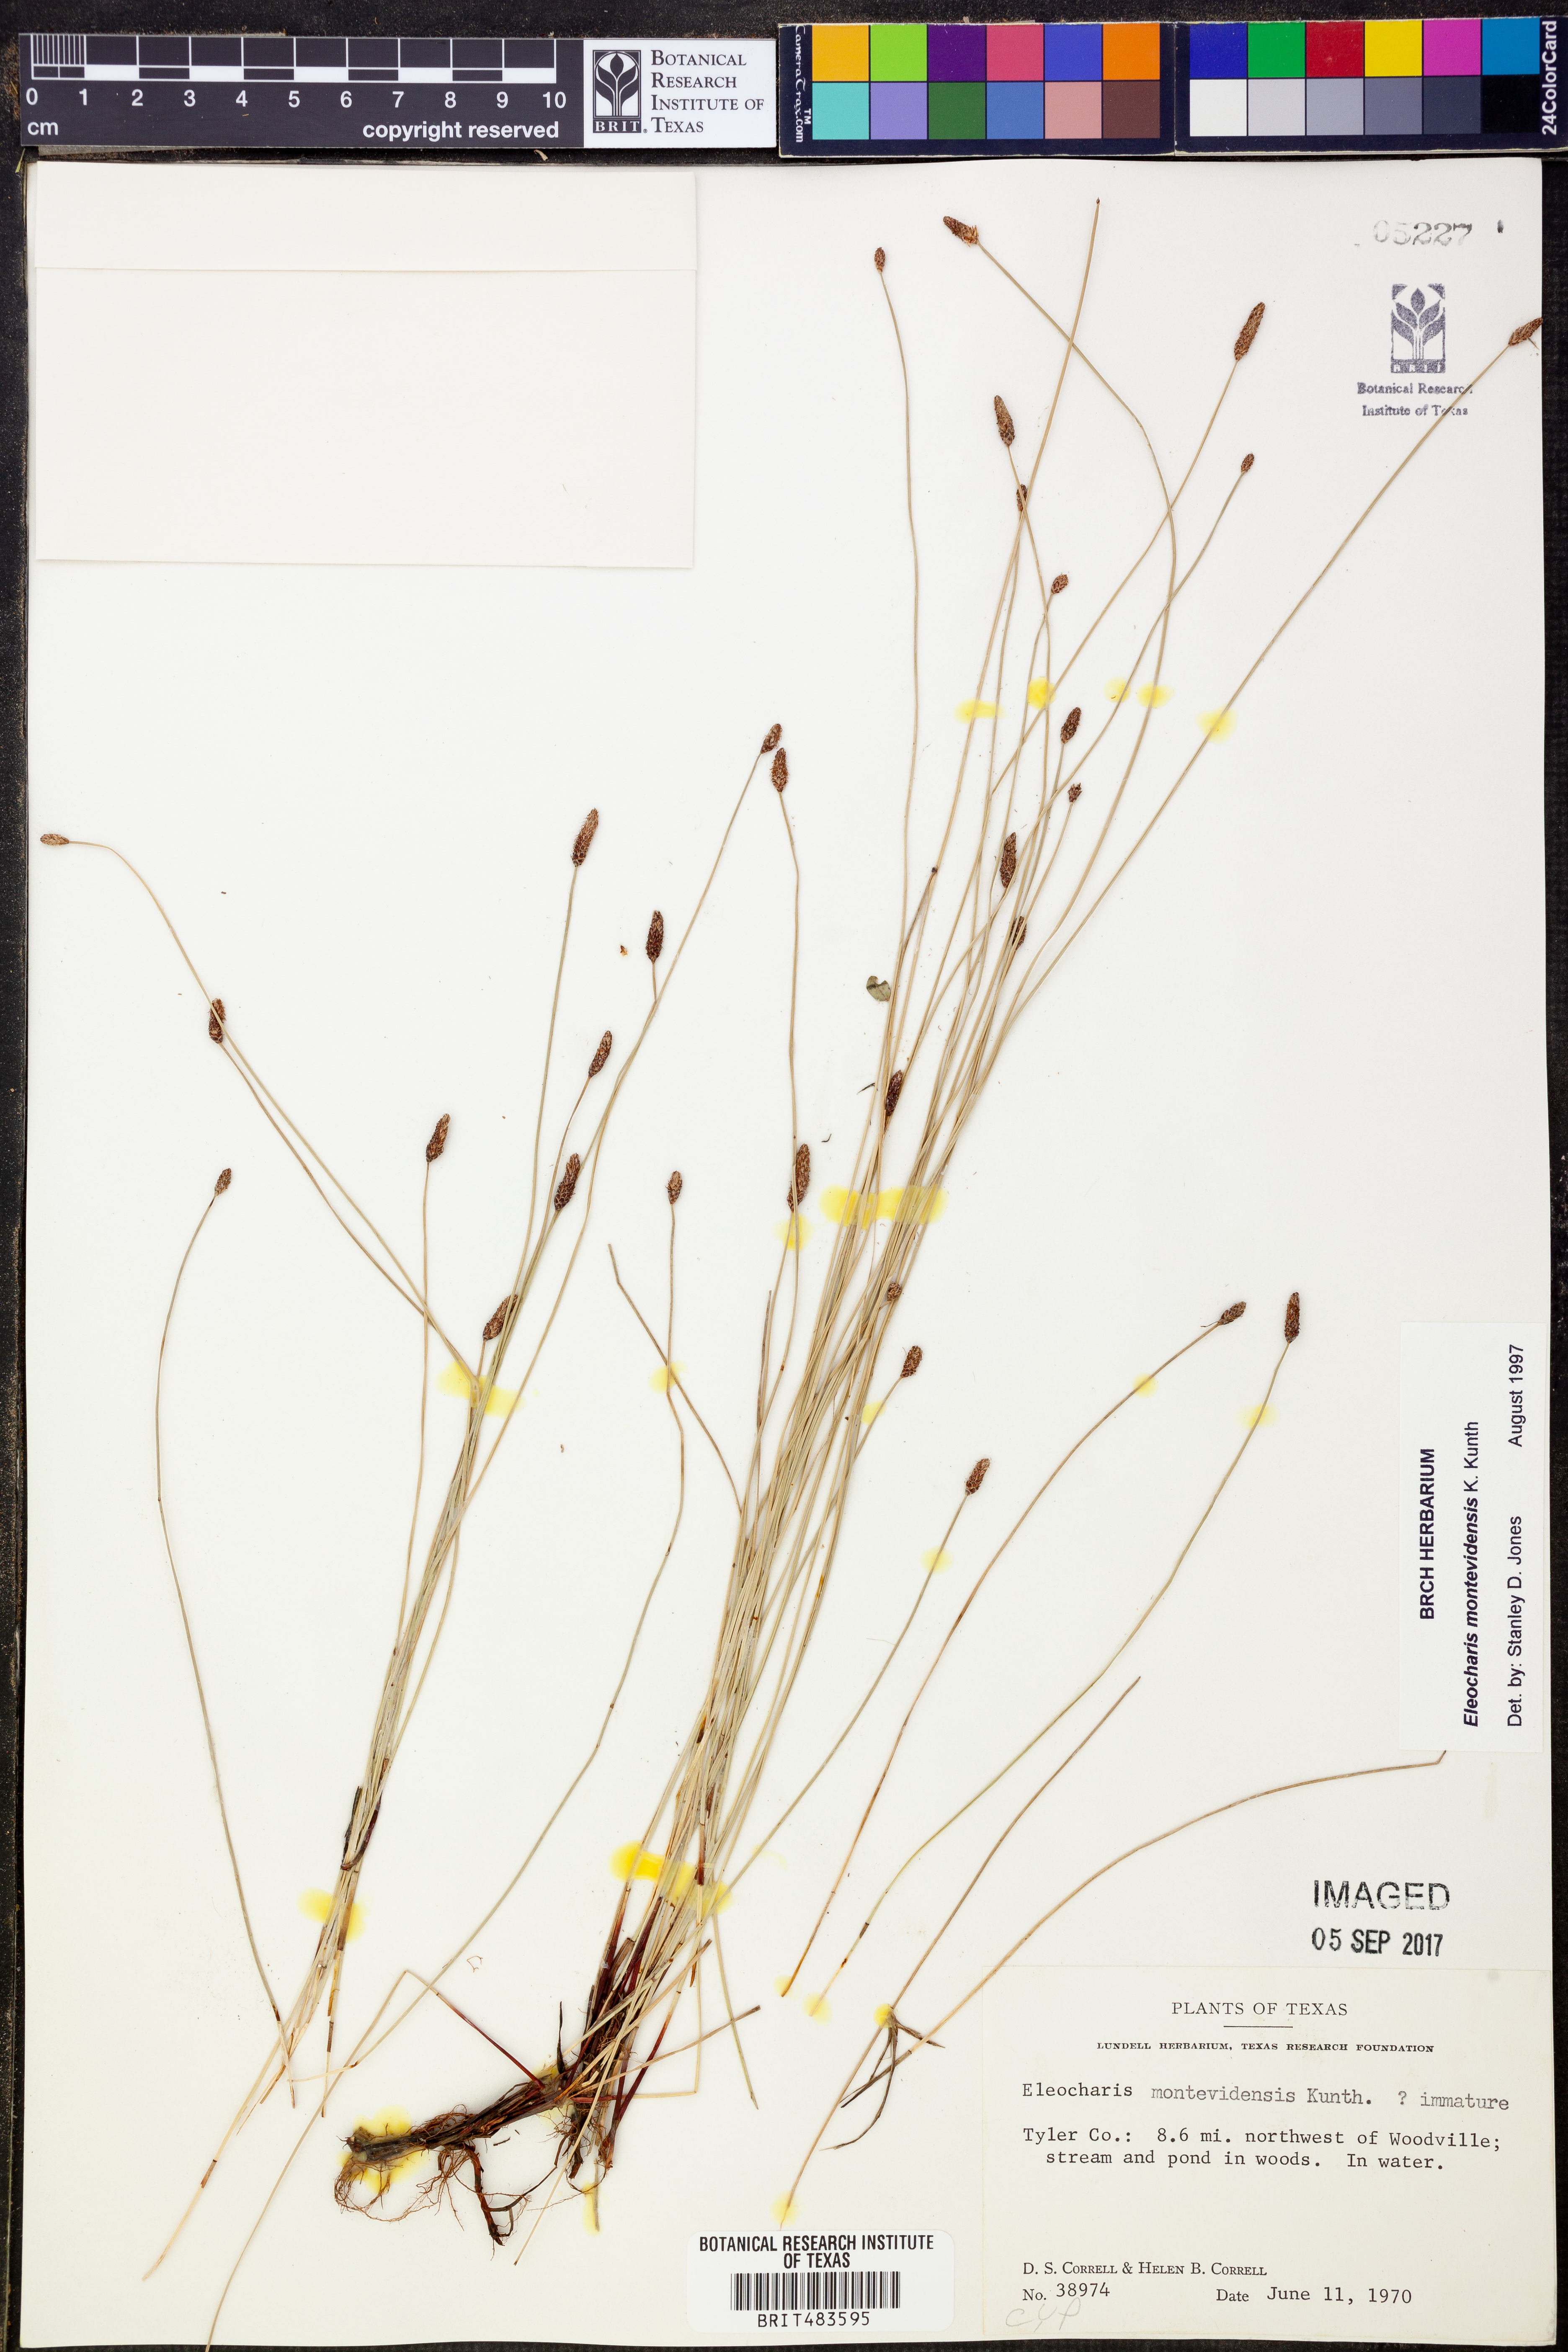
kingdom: Plantae
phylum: Tracheophyta
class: Liliopsida
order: Poales
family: Cyperaceae
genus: Eleocharis
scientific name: Eleocharis montevidensis
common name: Sand spike-rush
